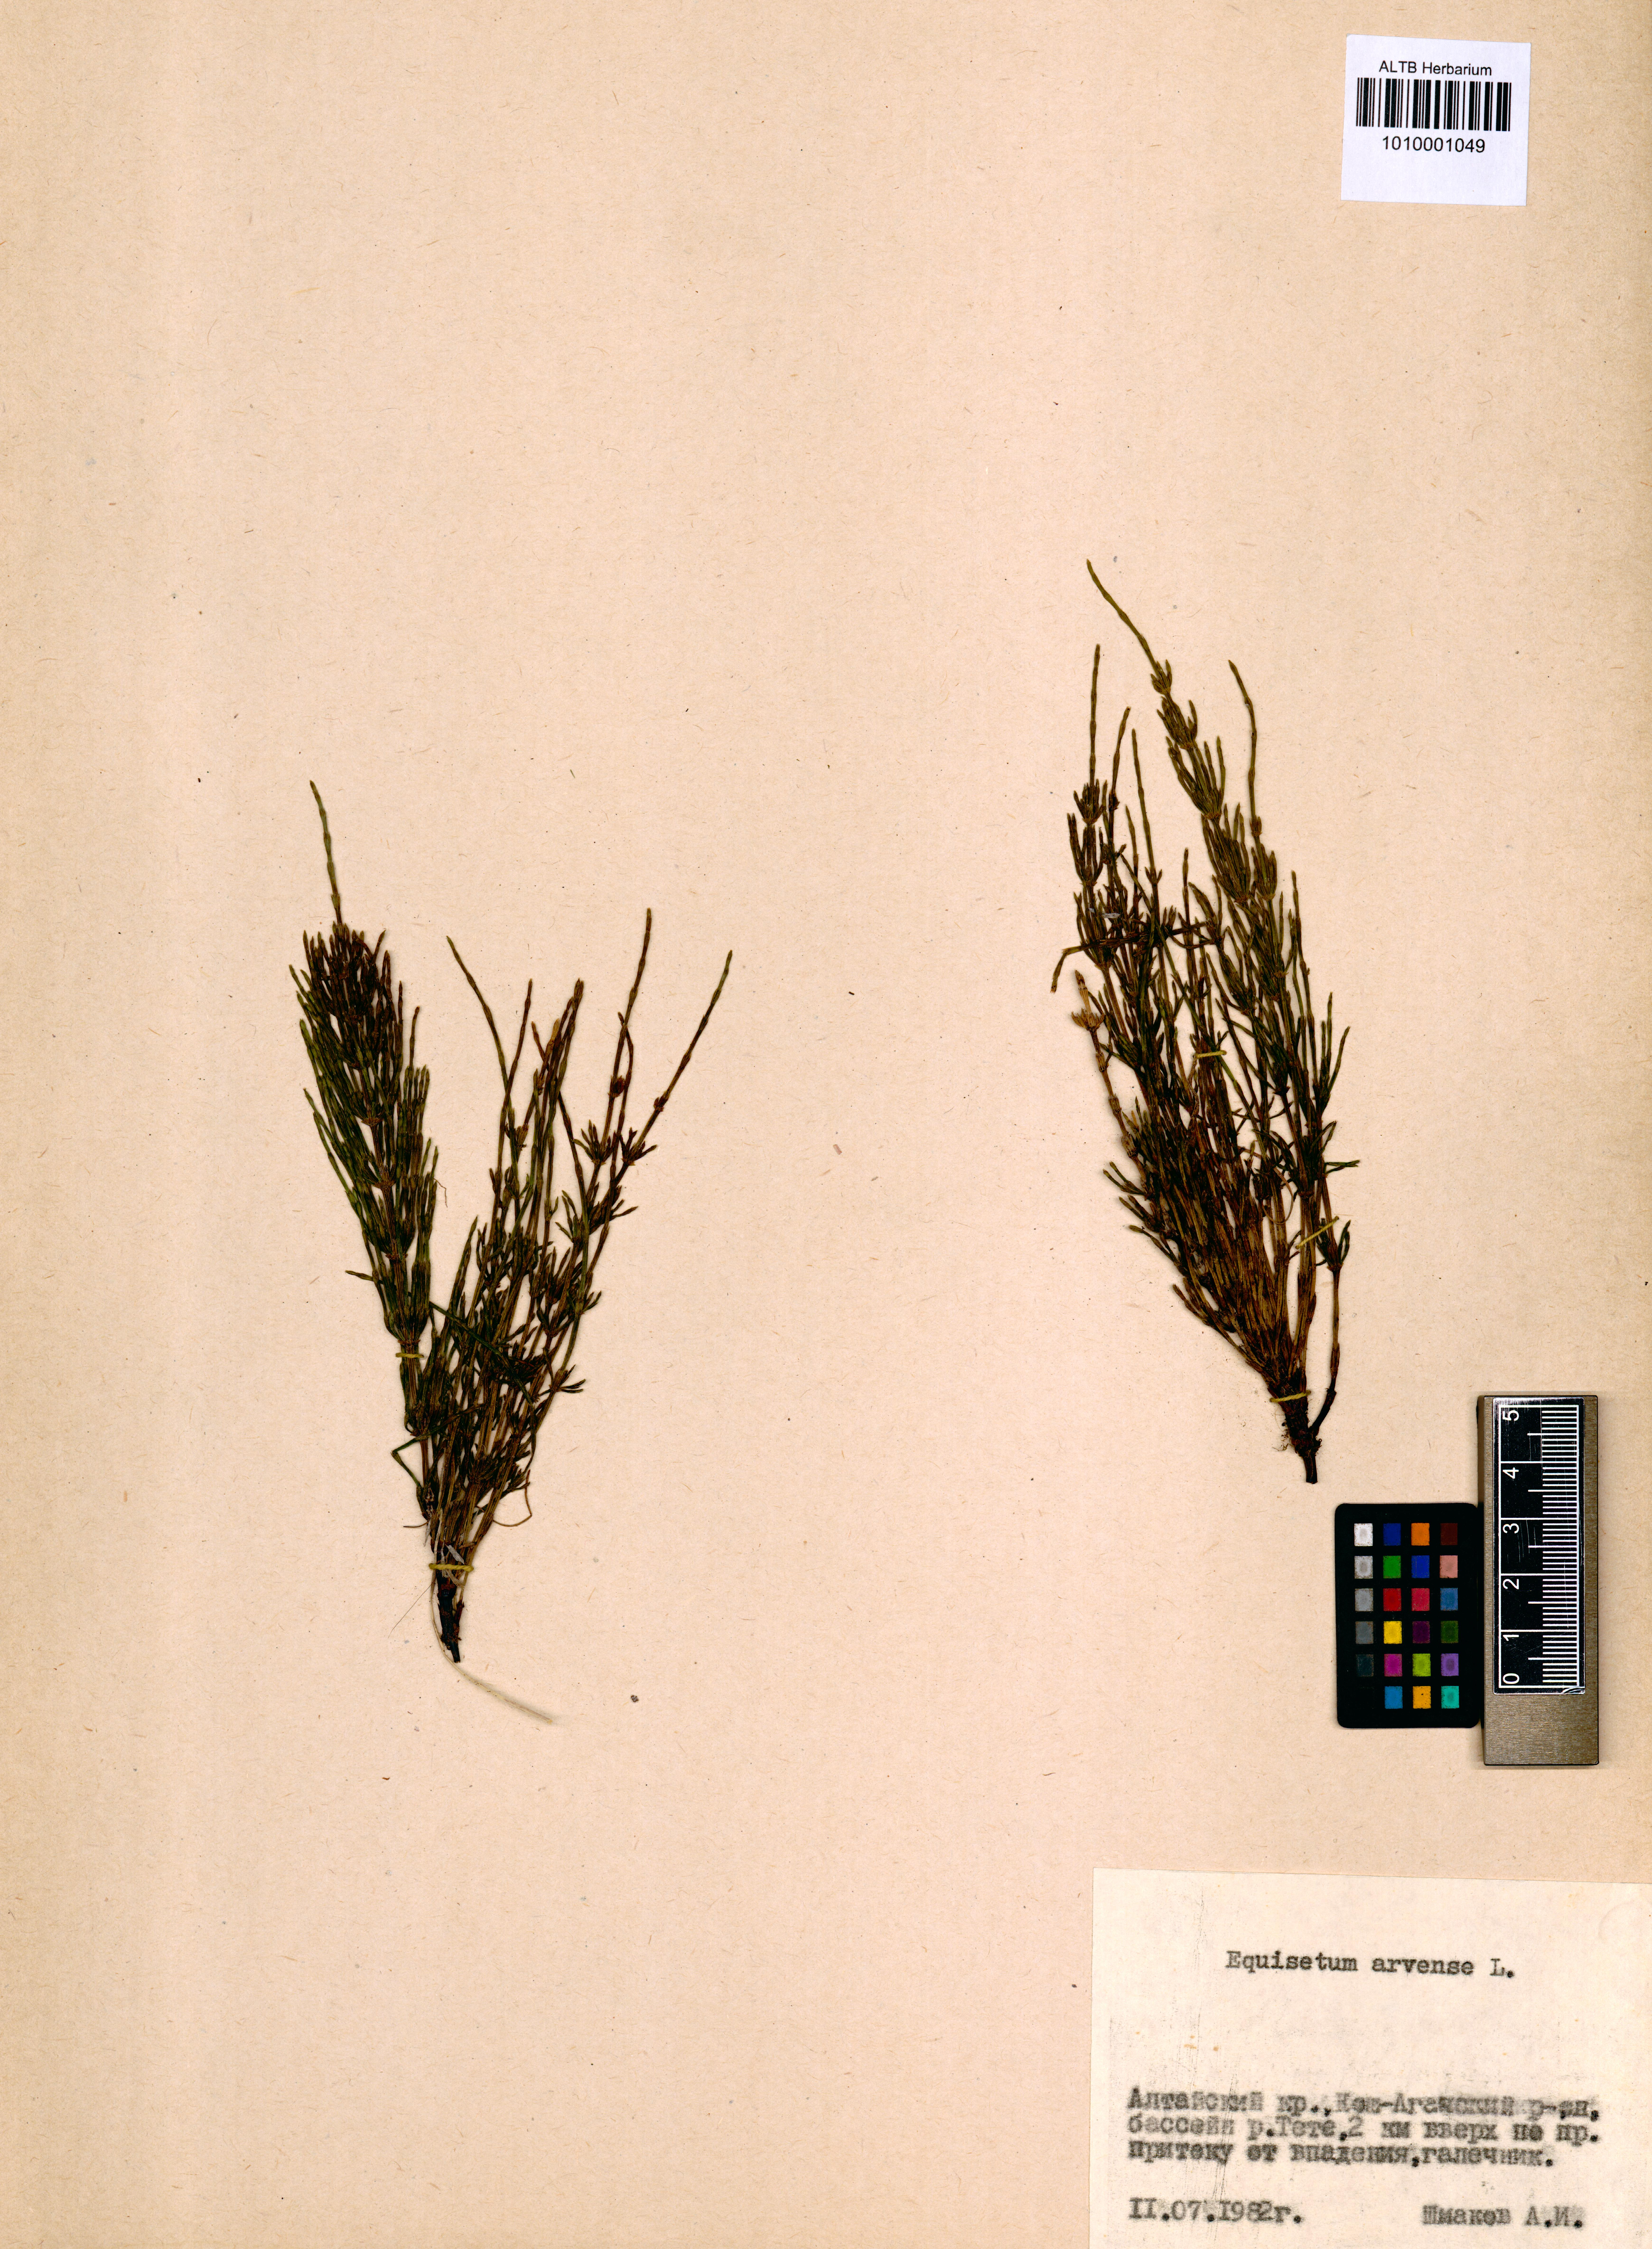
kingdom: Plantae
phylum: Tracheophyta
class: Polypodiopsida
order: Equisetales
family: Equisetaceae
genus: Equisetum
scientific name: Equisetum arvense
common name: Field horsetail
